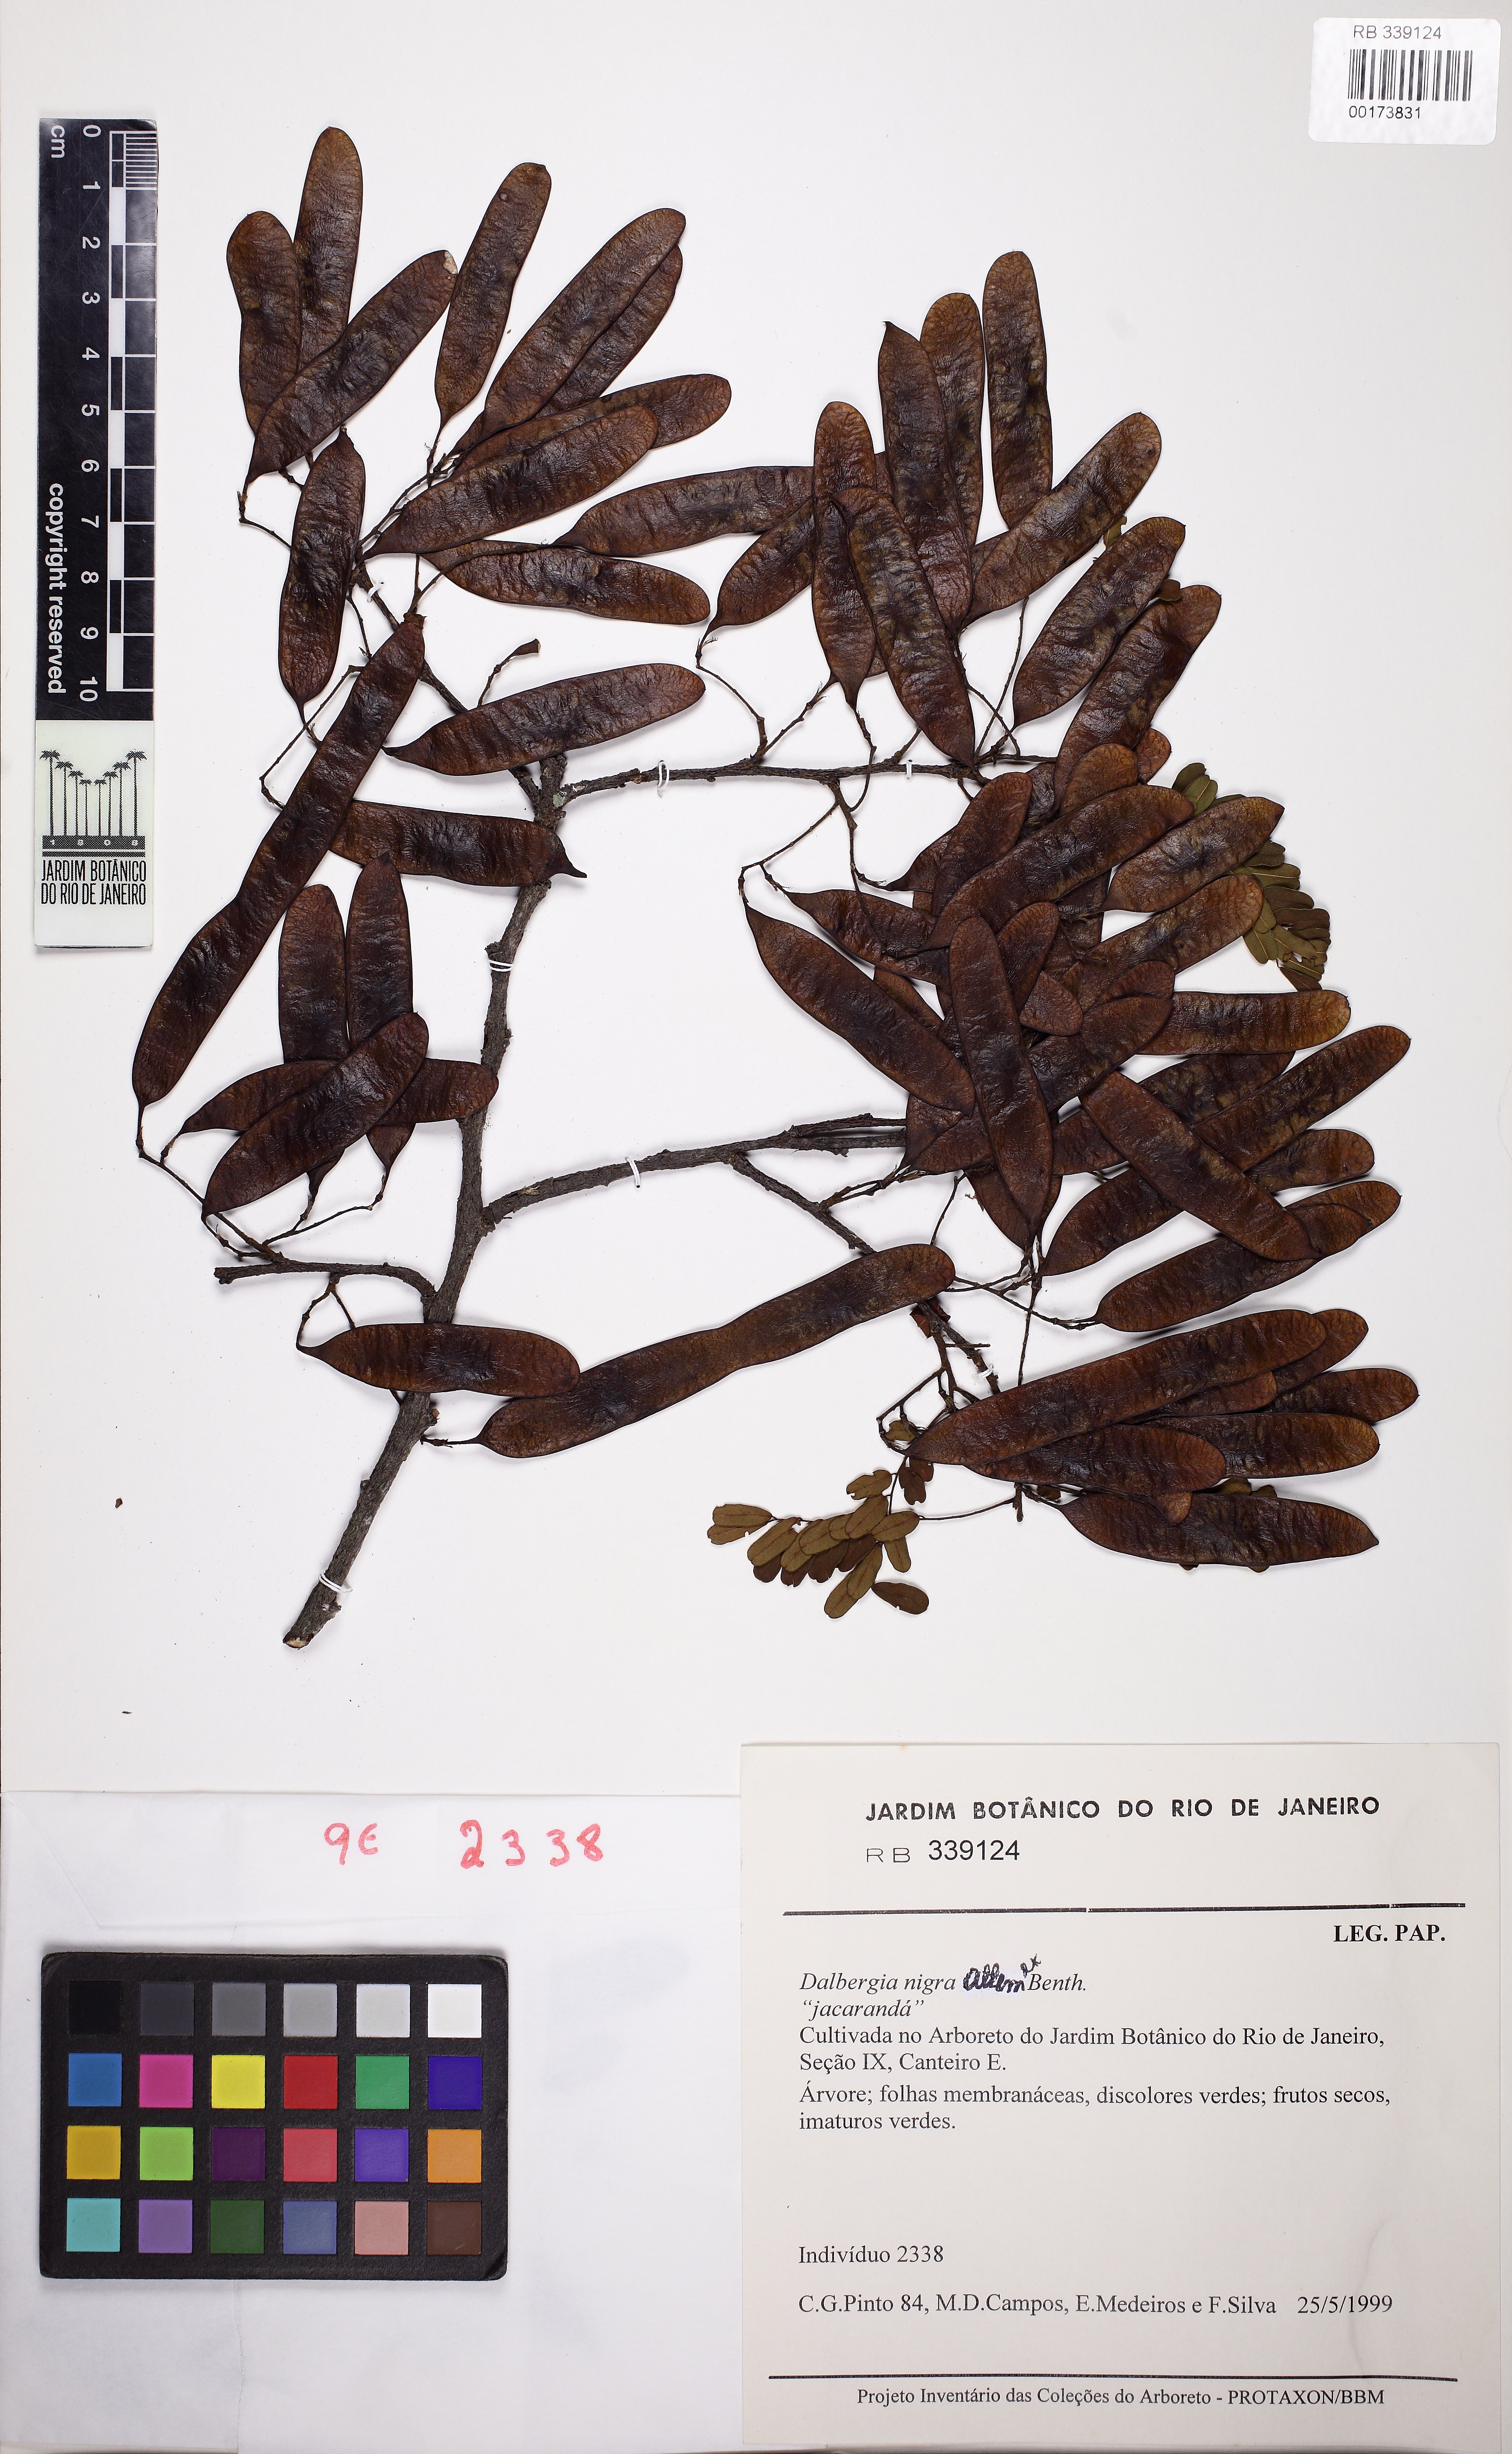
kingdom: Plantae
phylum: Tracheophyta
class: Magnoliopsida
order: Fabales
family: Fabaceae
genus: Dalbergia
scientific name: Dalbergia nigra
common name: Bahia rosewood
